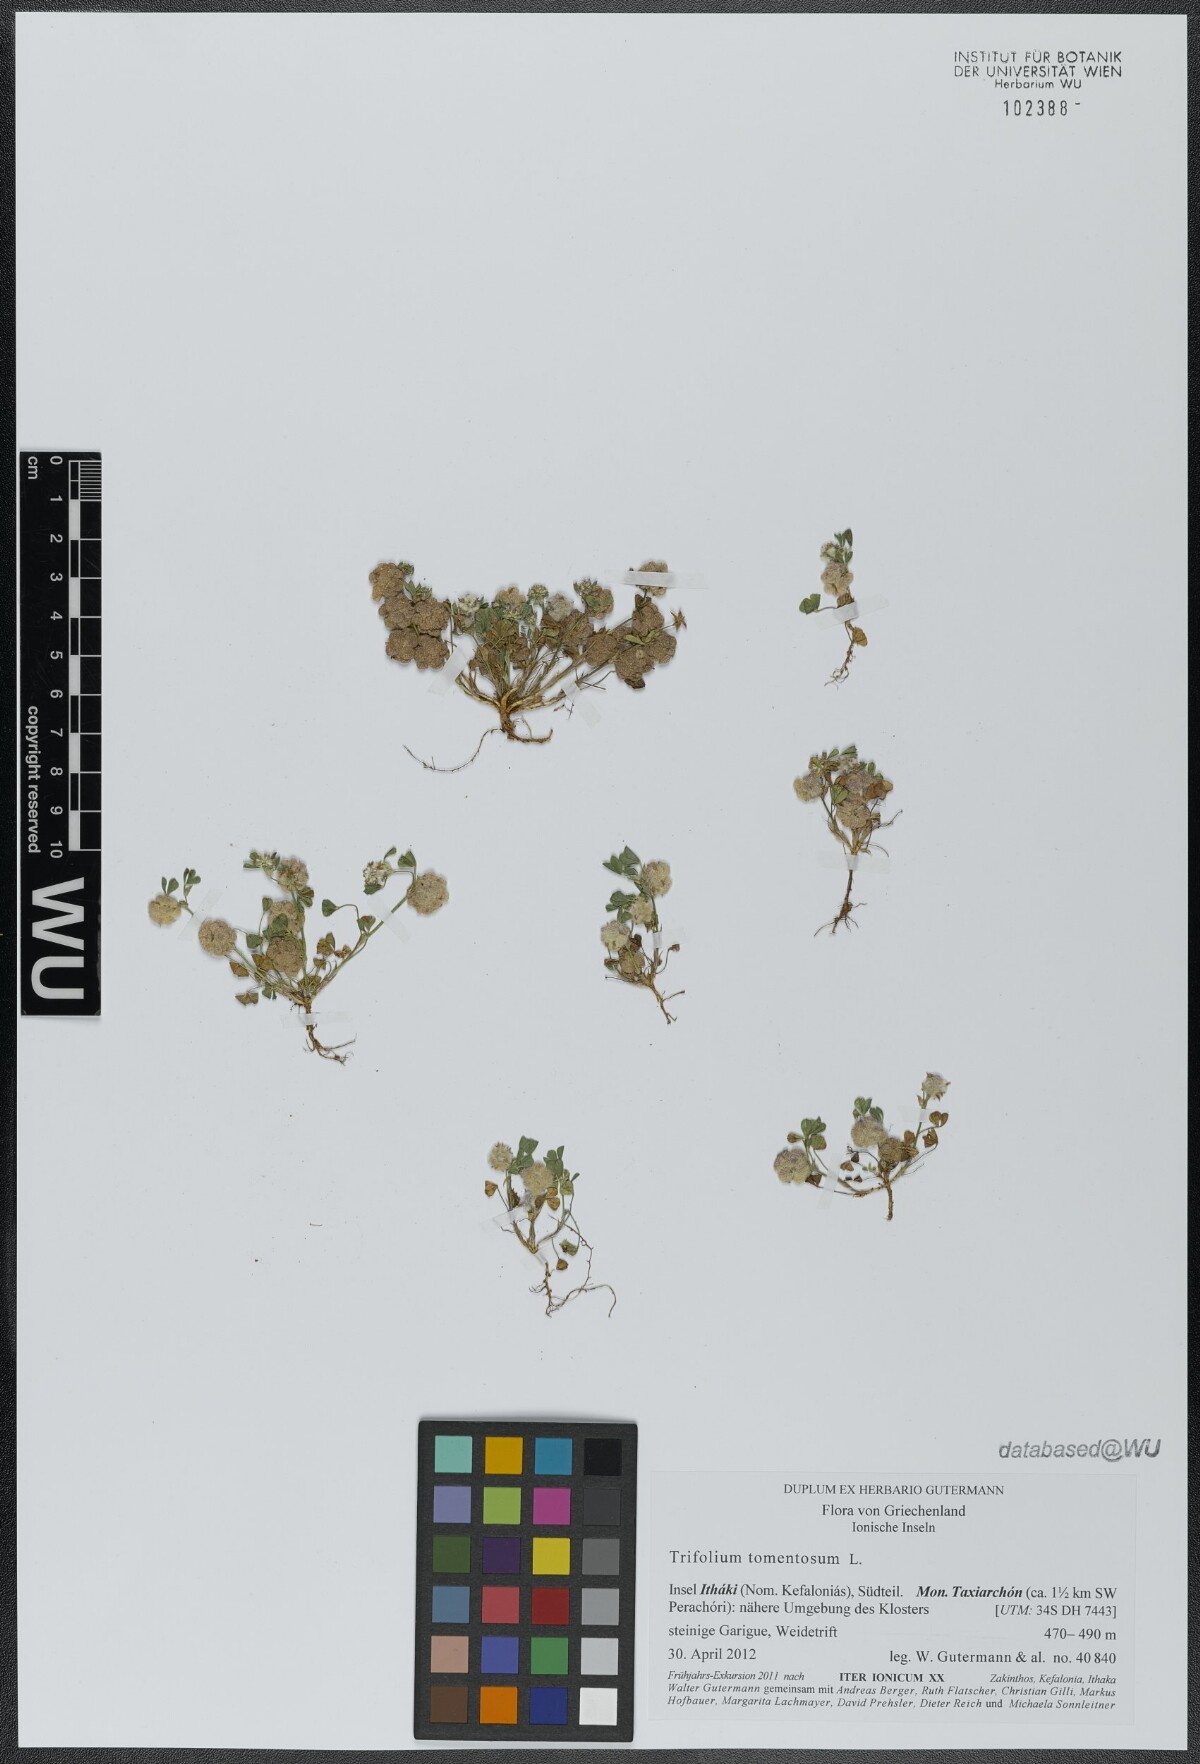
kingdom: Plantae
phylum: Tracheophyta
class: Magnoliopsida
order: Fabales
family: Fabaceae
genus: Trifolium
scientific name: Trifolium tomentosum
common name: Woolly clover
